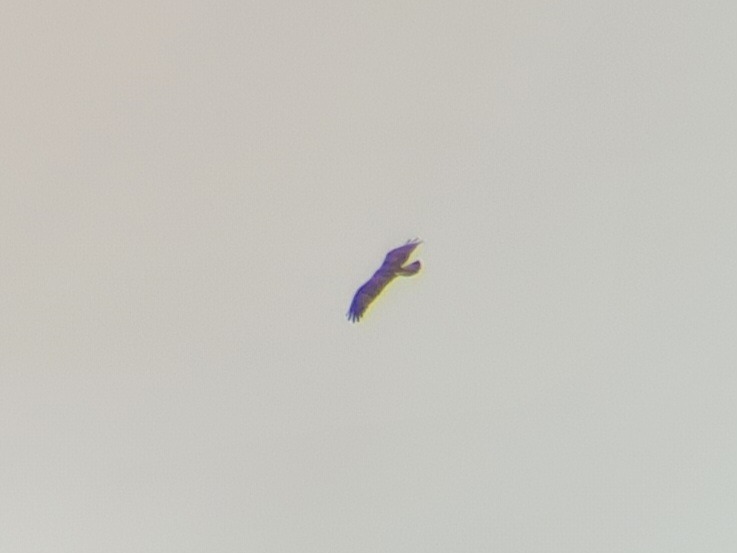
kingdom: Animalia
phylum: Chordata
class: Aves
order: Accipitriformes
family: Pandionidae
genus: Pandion
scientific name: Pandion haliaetus
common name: Fiskeørn
